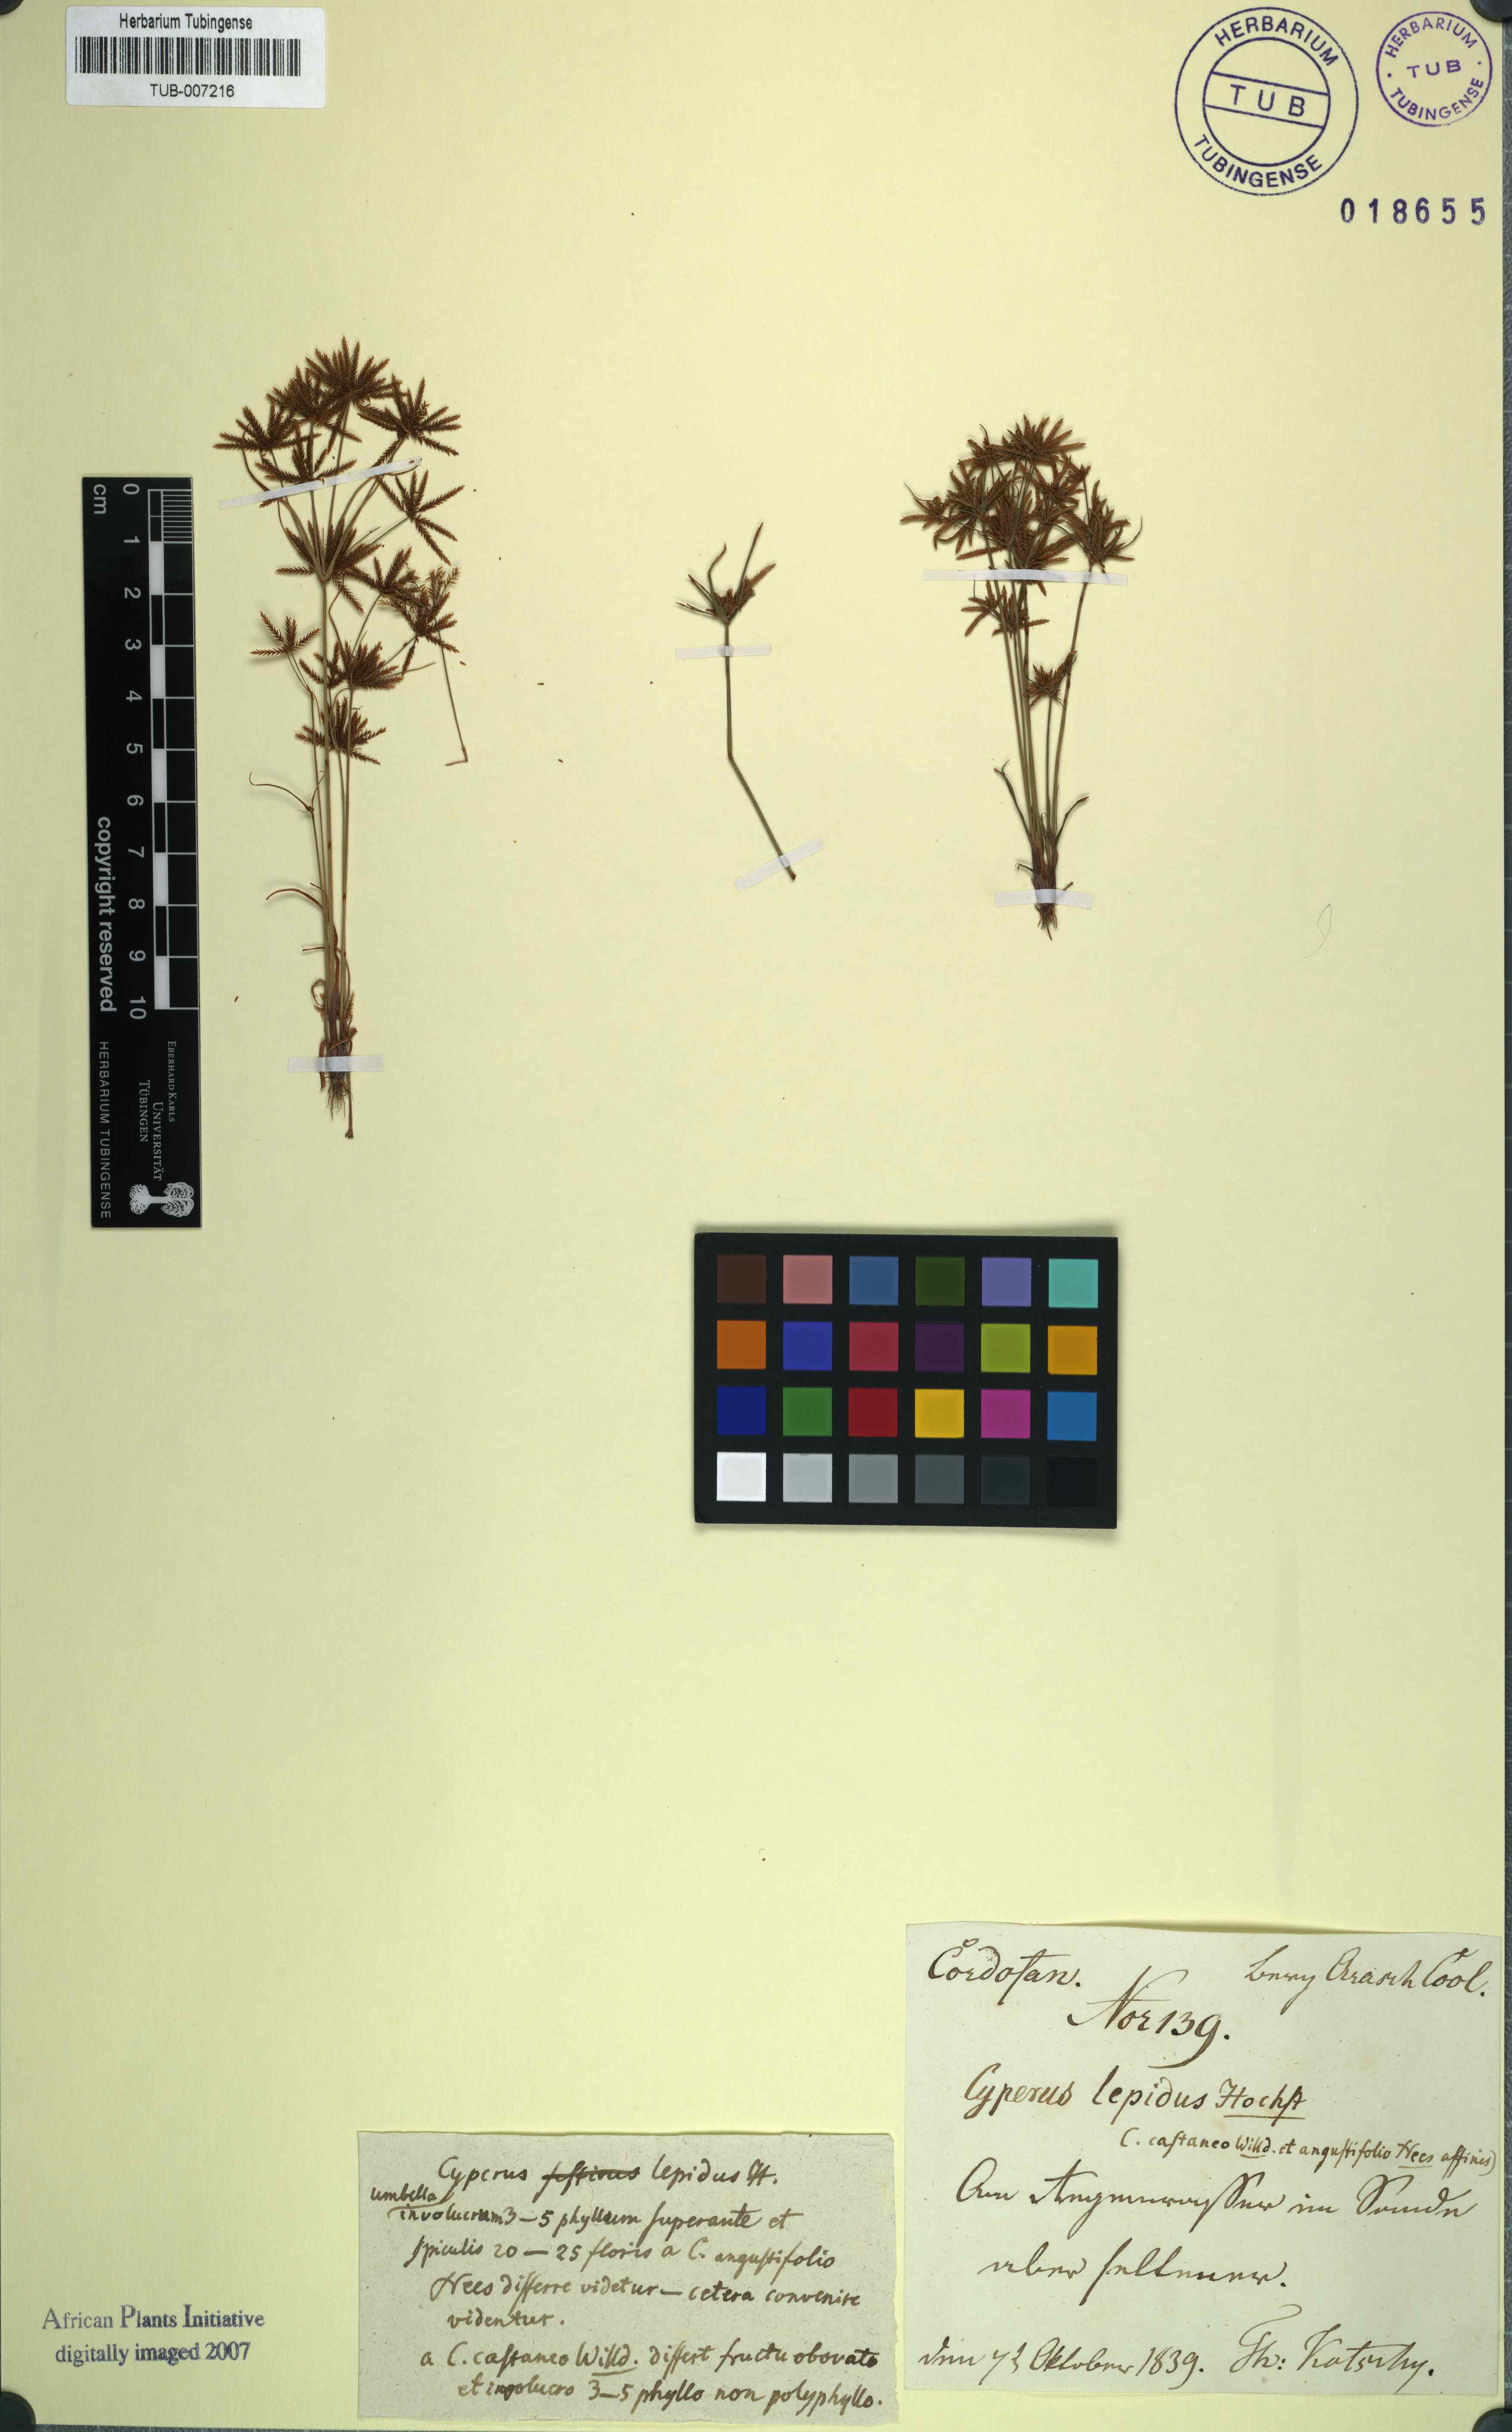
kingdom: Plantae
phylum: Tracheophyta
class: Liliopsida
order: Poales
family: Cyperaceae
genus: Cyperus
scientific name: Cyperus amabilis
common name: Foothill flat sedge
